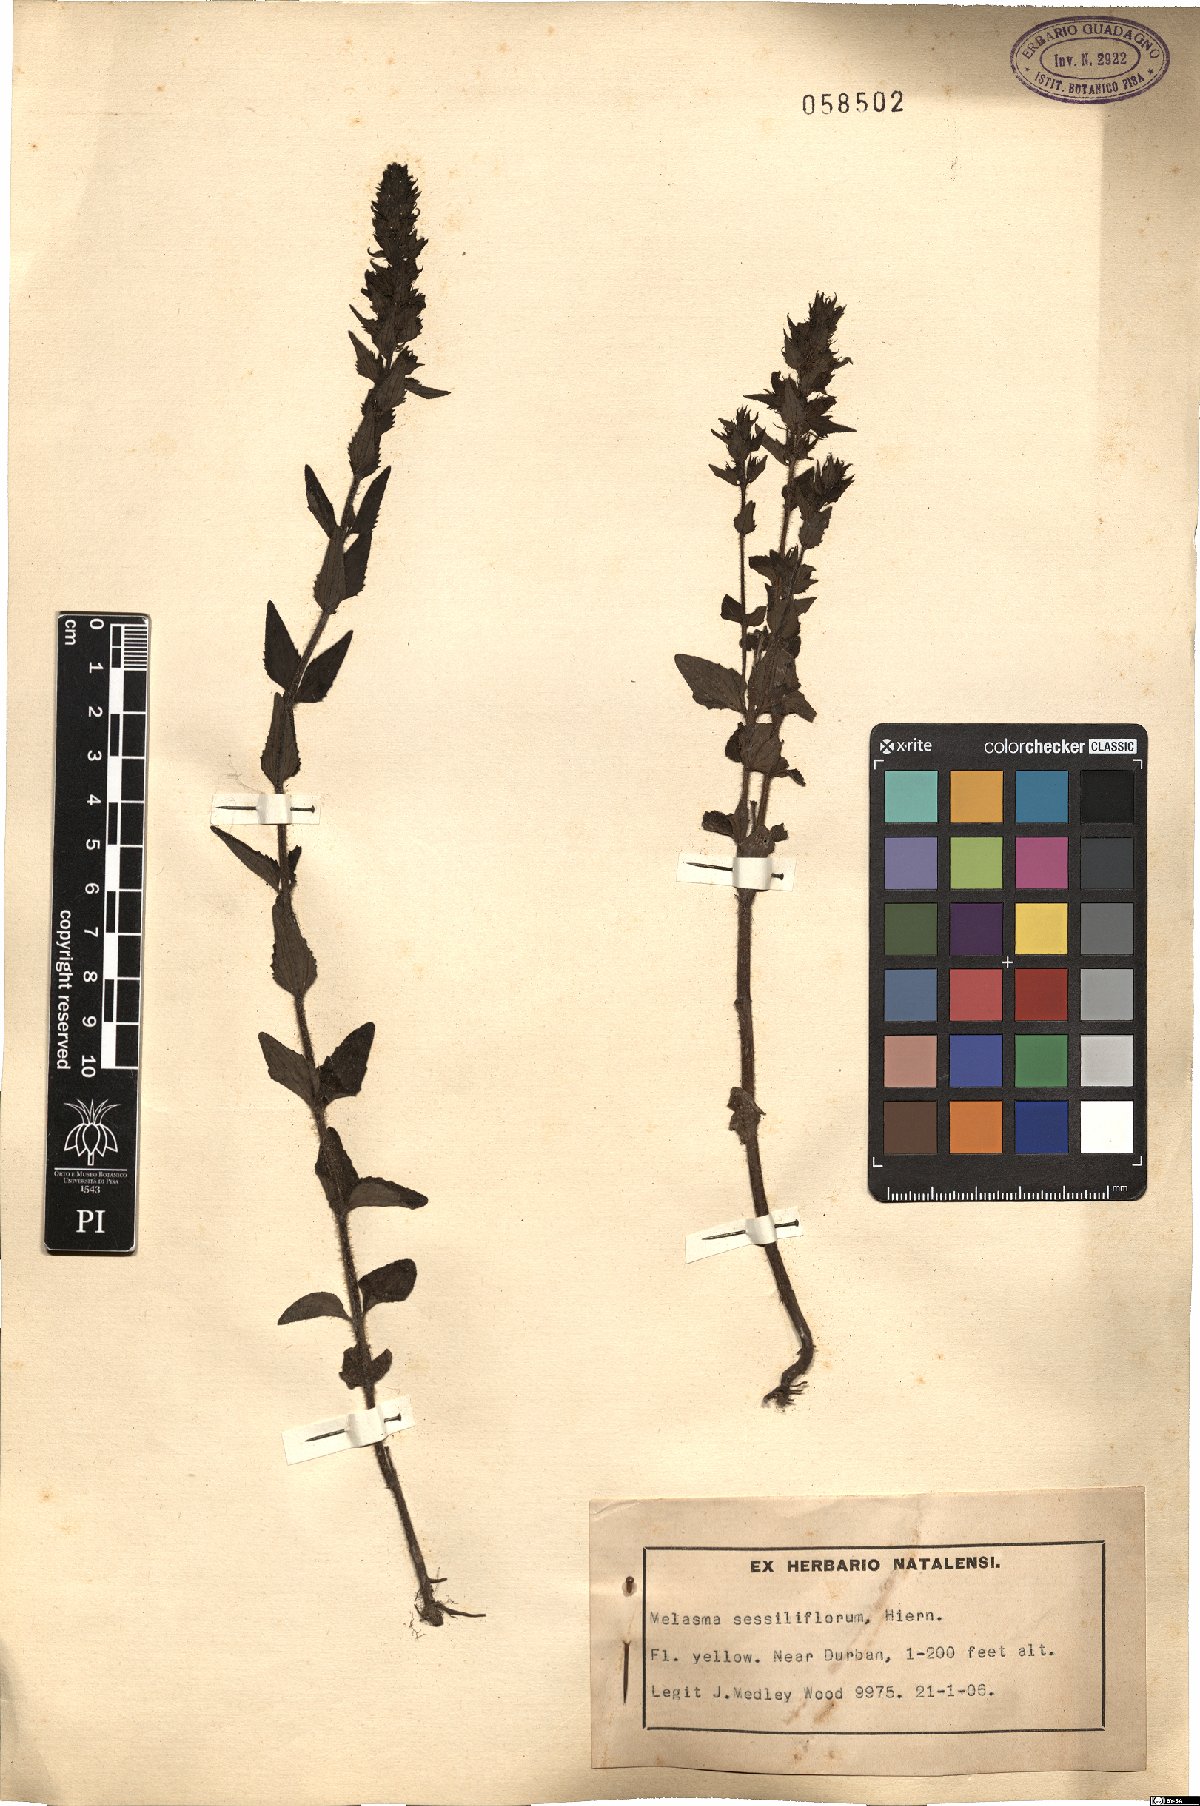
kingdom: Plantae
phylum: Tracheophyta
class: Magnoliopsida
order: Lamiales
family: Orobanchaceae
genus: Alectra
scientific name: Alectra sessiliflora
